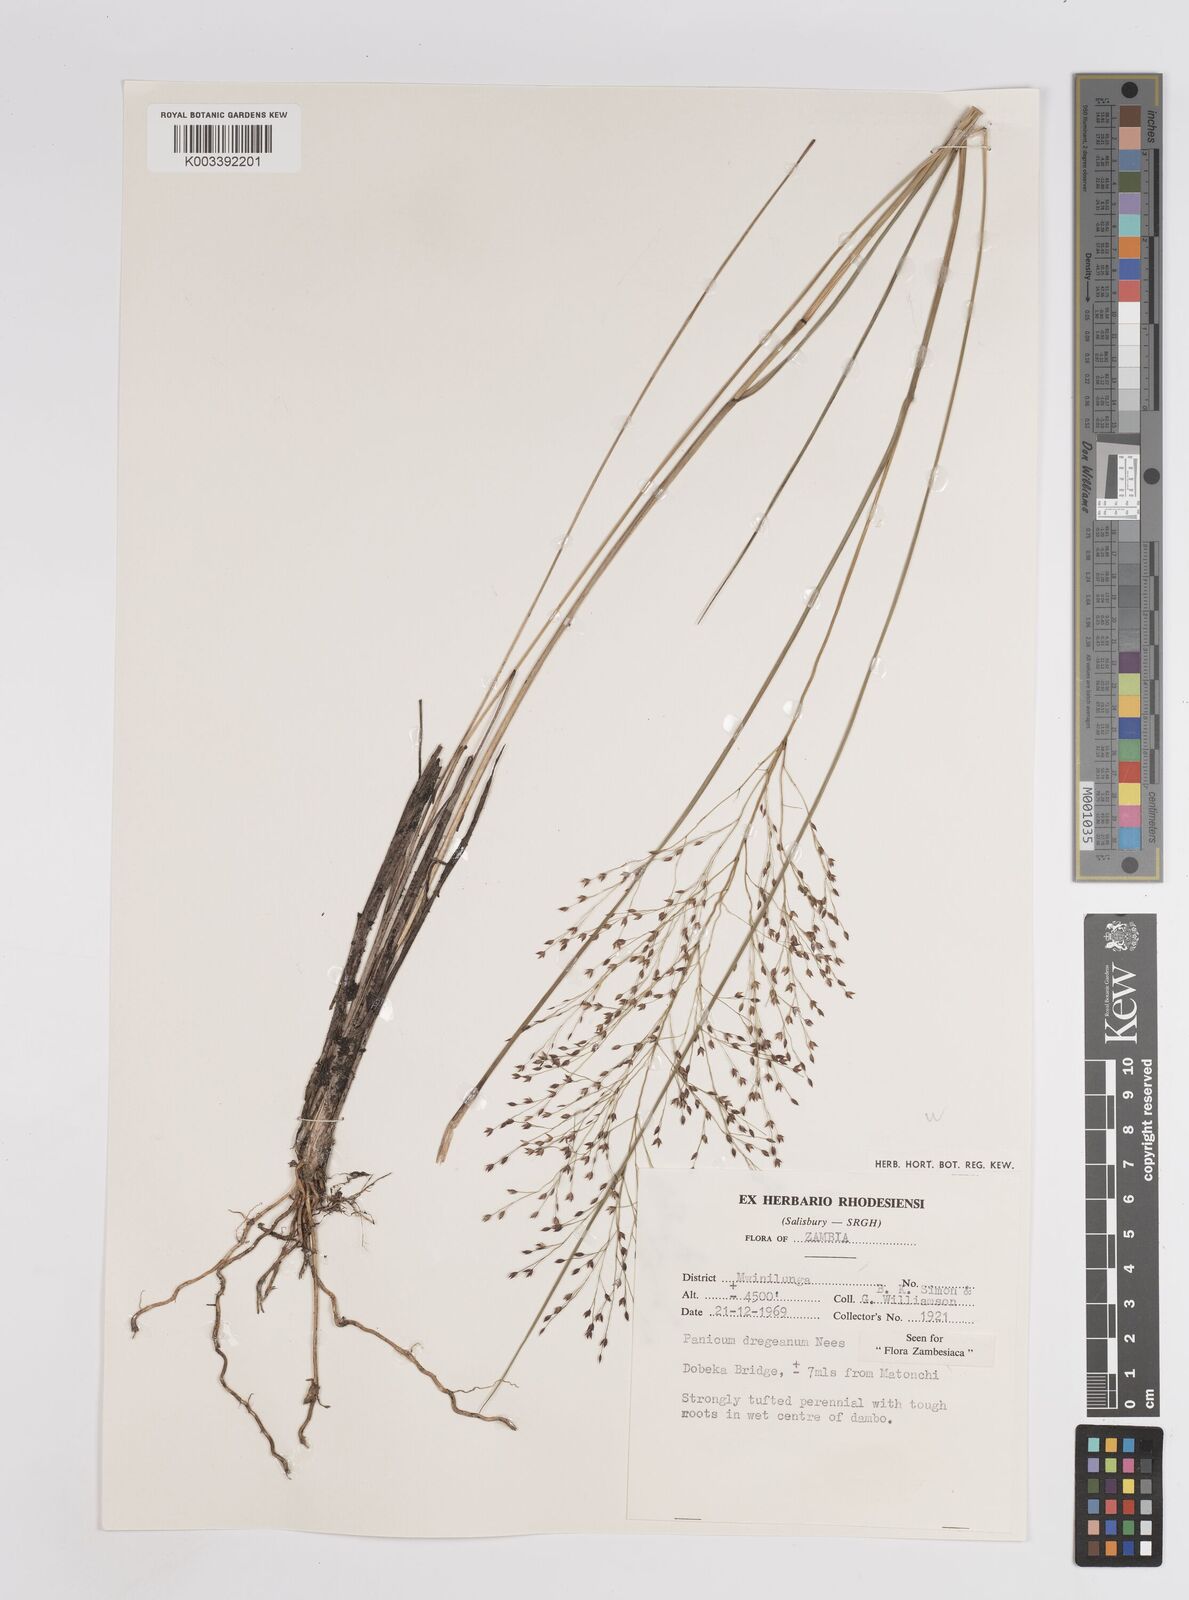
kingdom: Plantae
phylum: Tracheophyta
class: Liliopsida
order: Poales
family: Poaceae
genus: Panicum
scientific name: Panicum dregeanum
